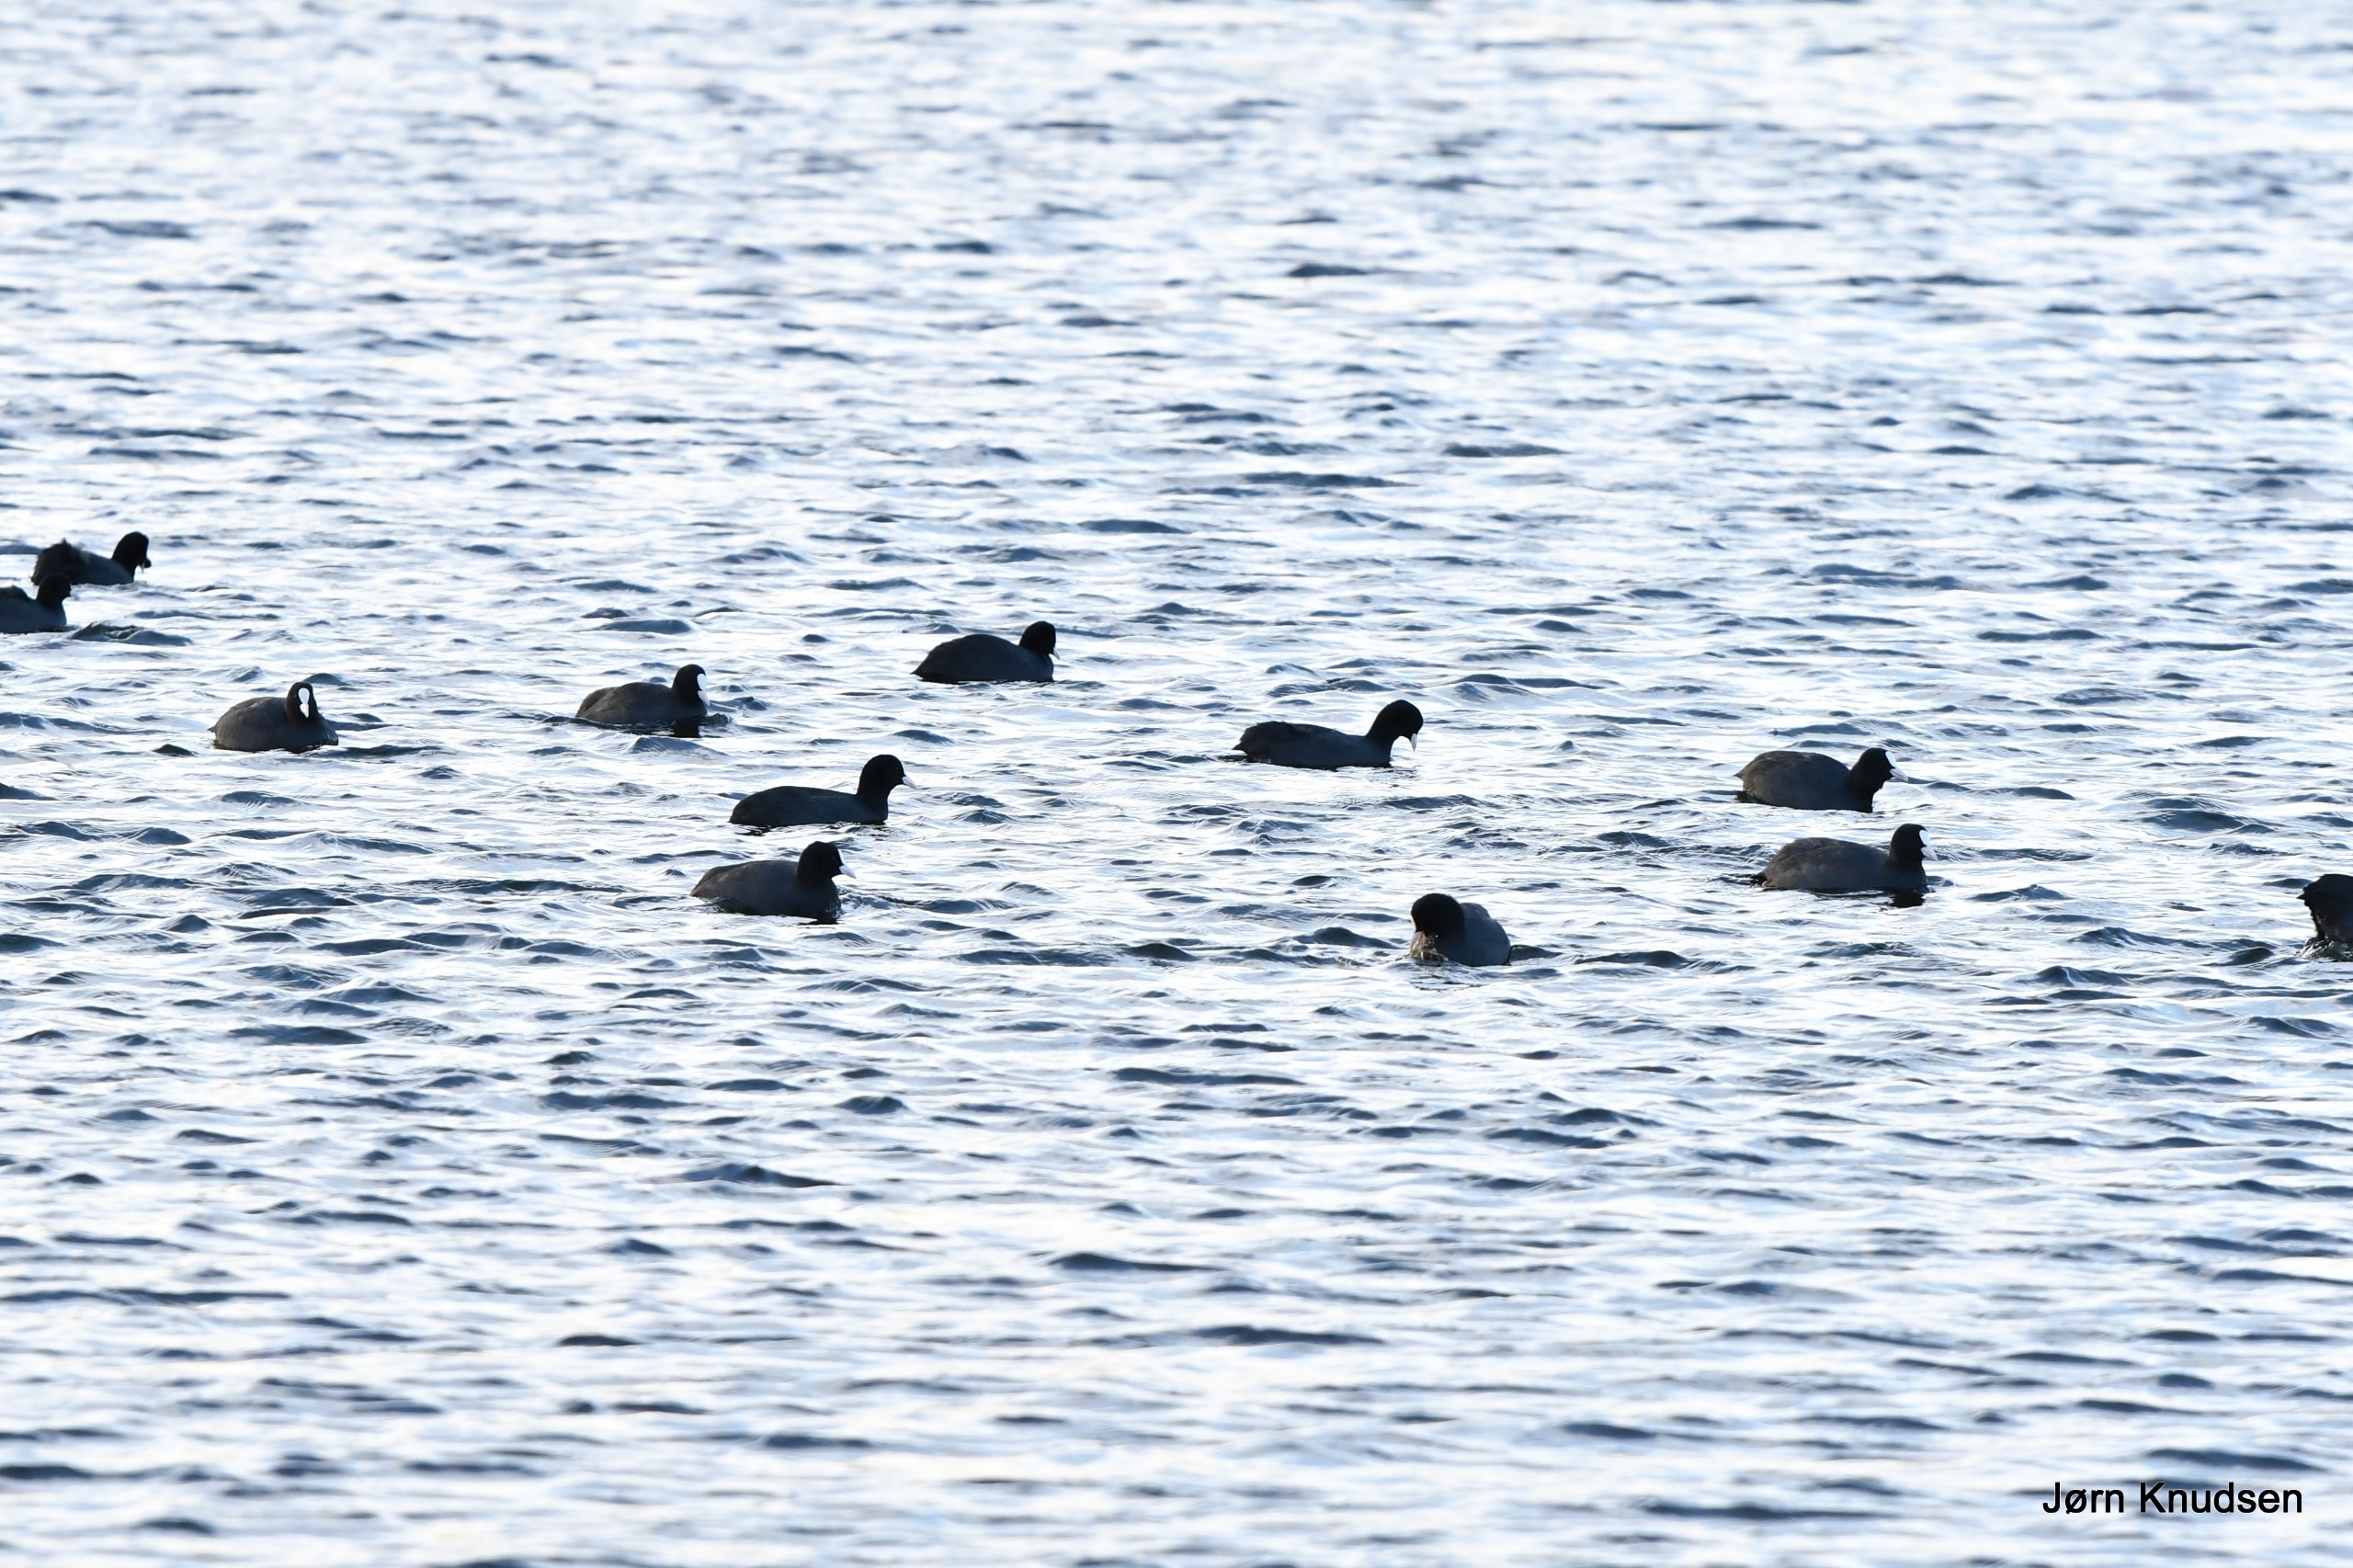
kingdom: Animalia
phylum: Chordata
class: Aves
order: Gruiformes
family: Rallidae
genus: Fulica
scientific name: Fulica atra
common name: Blishøne
